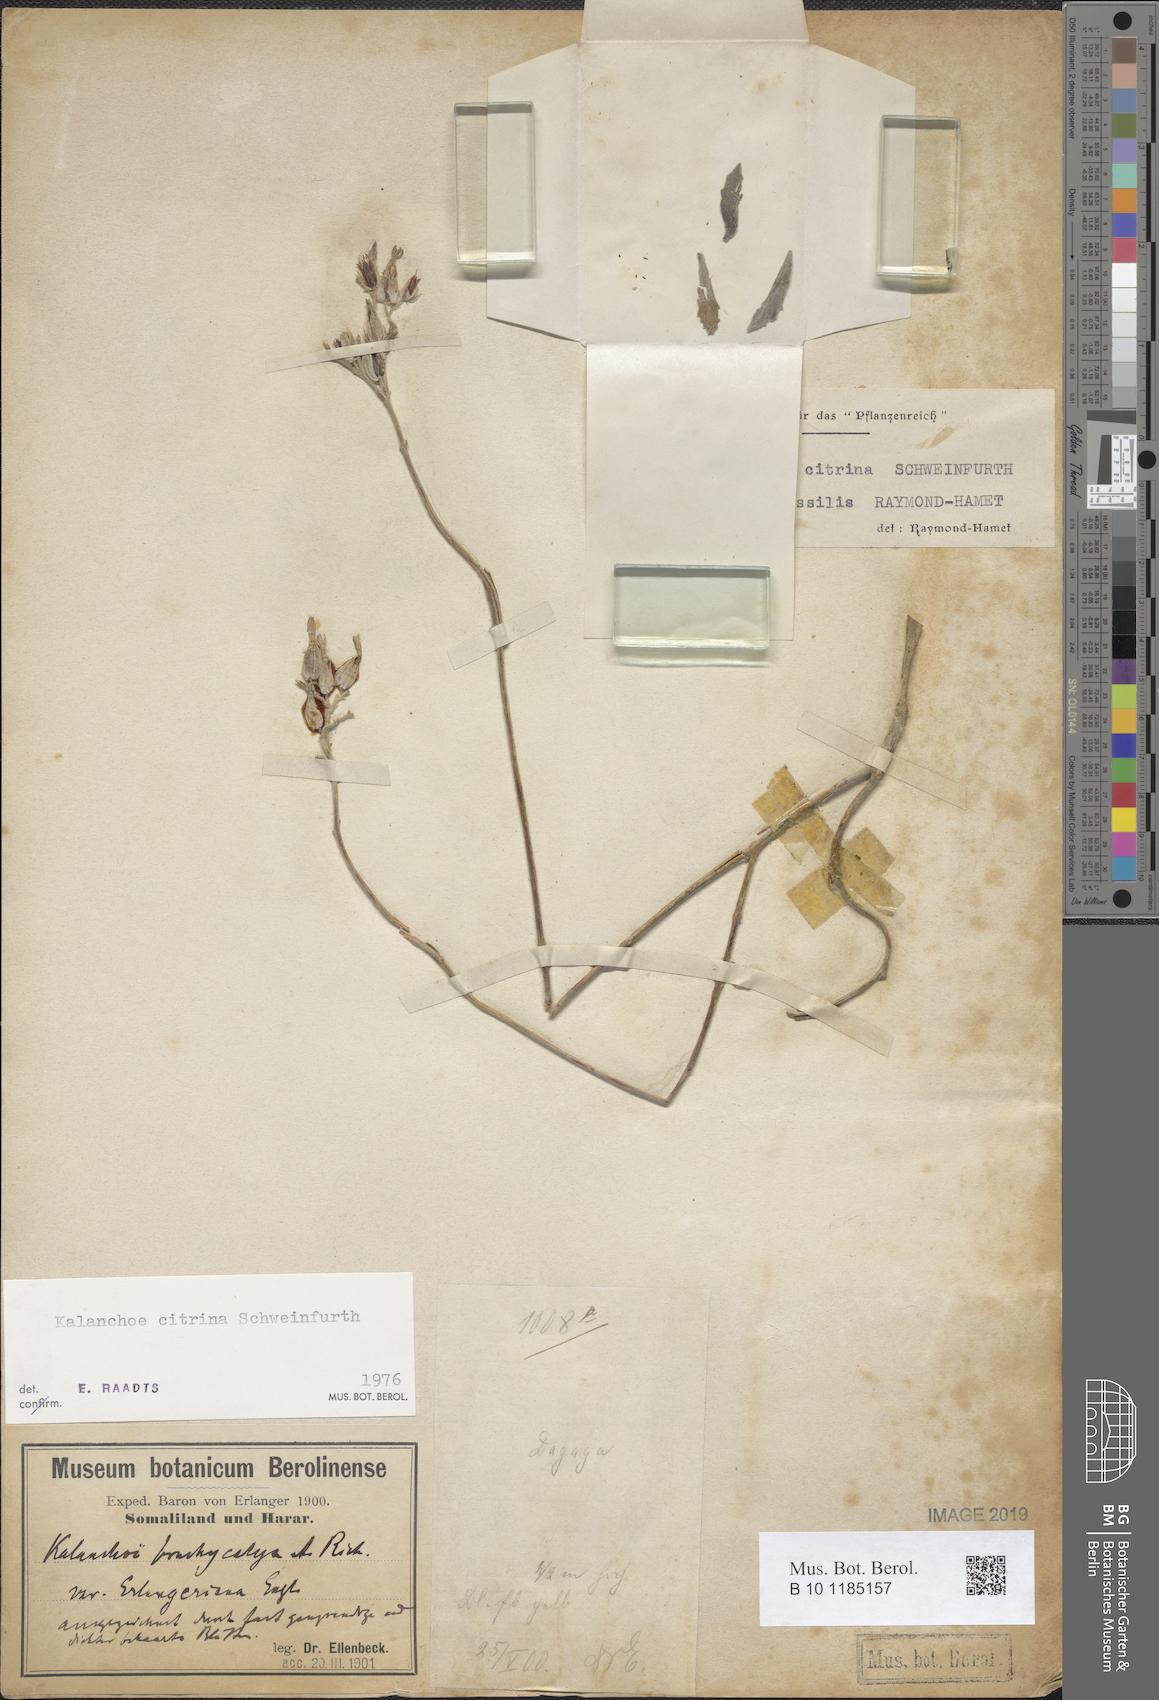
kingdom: Plantae
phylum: Tracheophyta
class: Magnoliopsida
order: Saxifragales
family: Crassulaceae
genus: Kalanchoe
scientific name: Kalanchoe citrina
